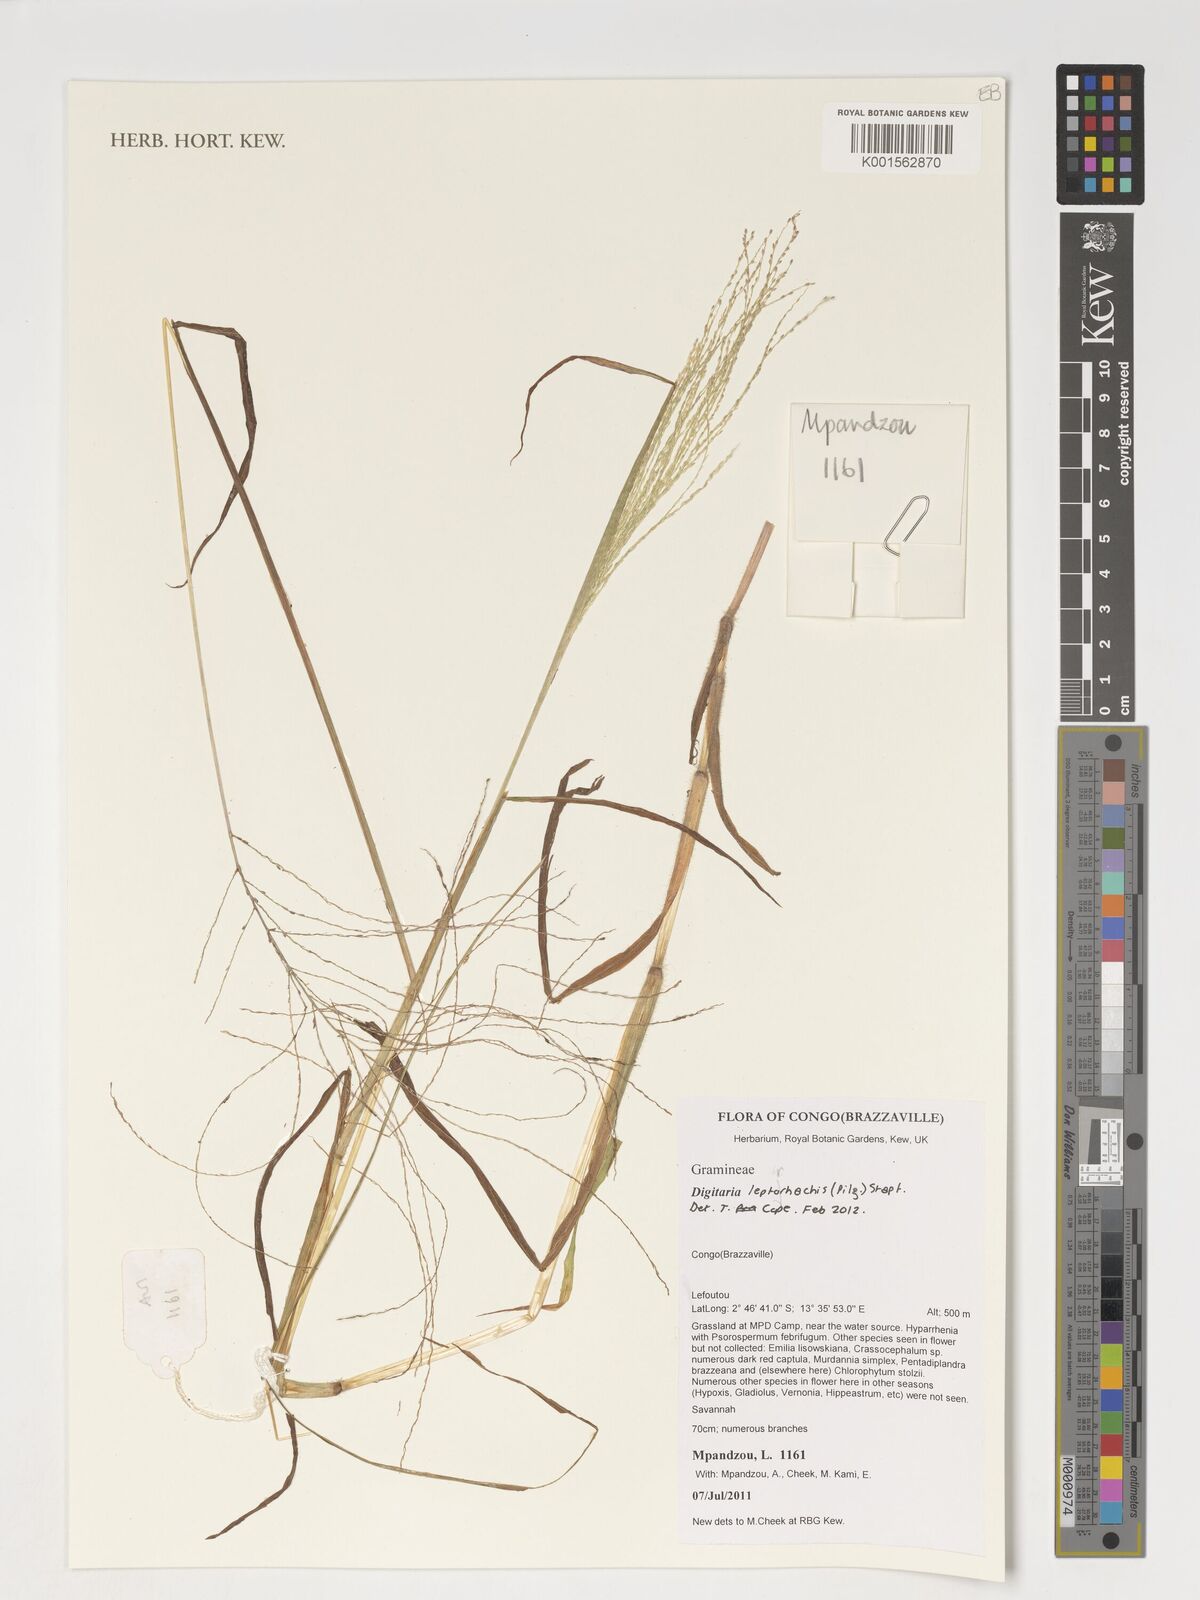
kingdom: Plantae
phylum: Tracheophyta
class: Liliopsida
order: Poales
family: Poaceae
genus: Digitaria
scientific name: Digitaria leptorhachis
